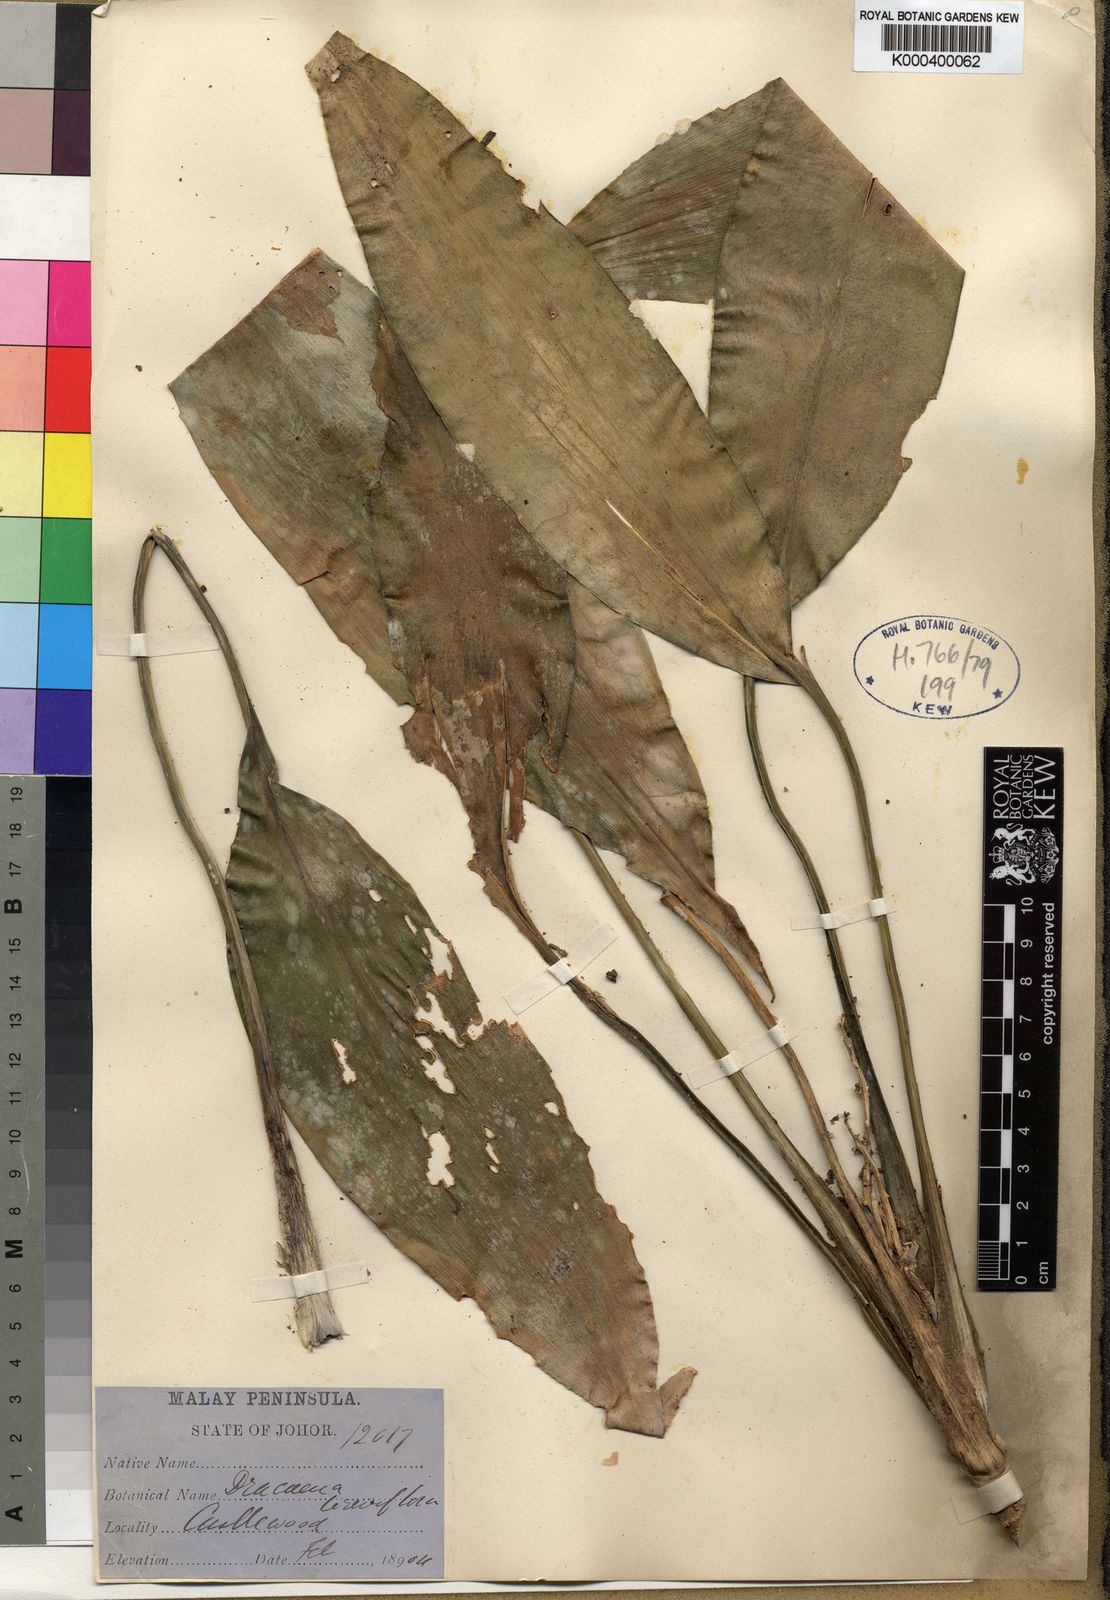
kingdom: Plantae
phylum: Tracheophyta
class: Liliopsida
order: Asparagales
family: Asparagaceae
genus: Dracaena
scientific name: Dracaena breviflora
